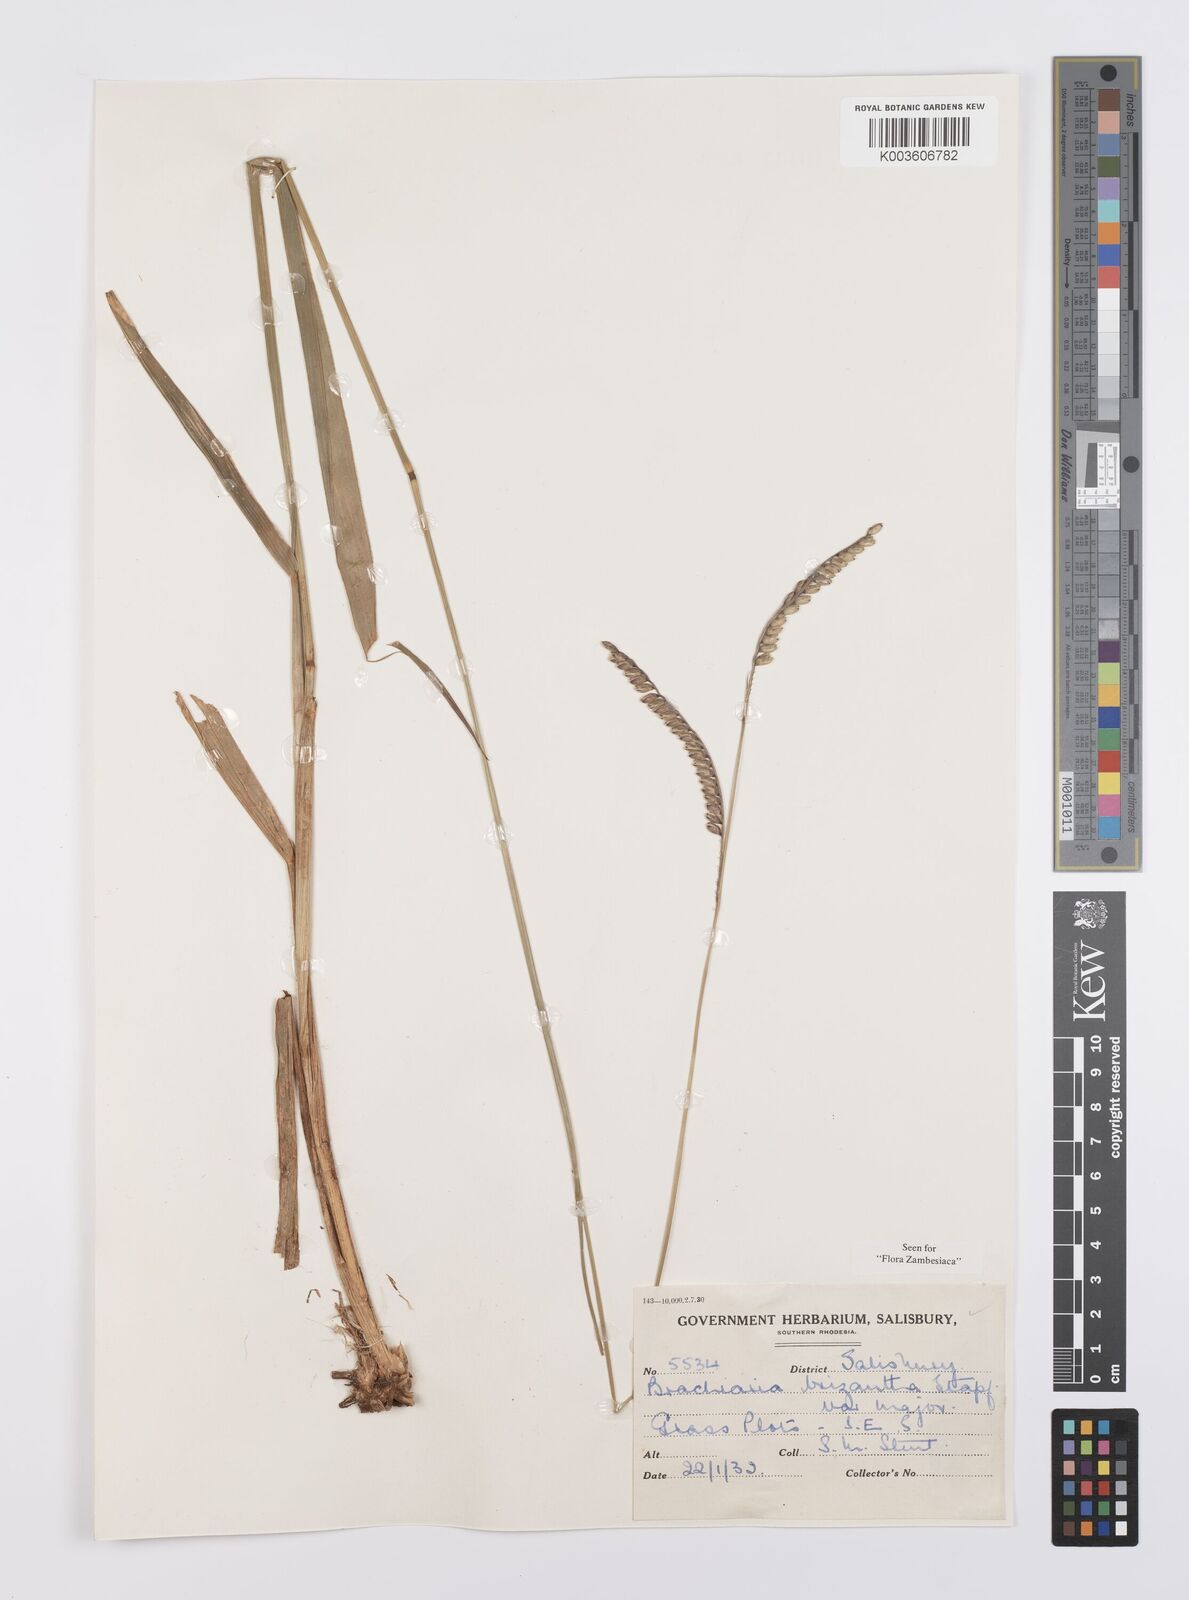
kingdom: Plantae
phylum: Tracheophyta
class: Liliopsida
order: Poales
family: Poaceae
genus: Urochloa
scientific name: Urochloa brizantha
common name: Palisade signalgrass
